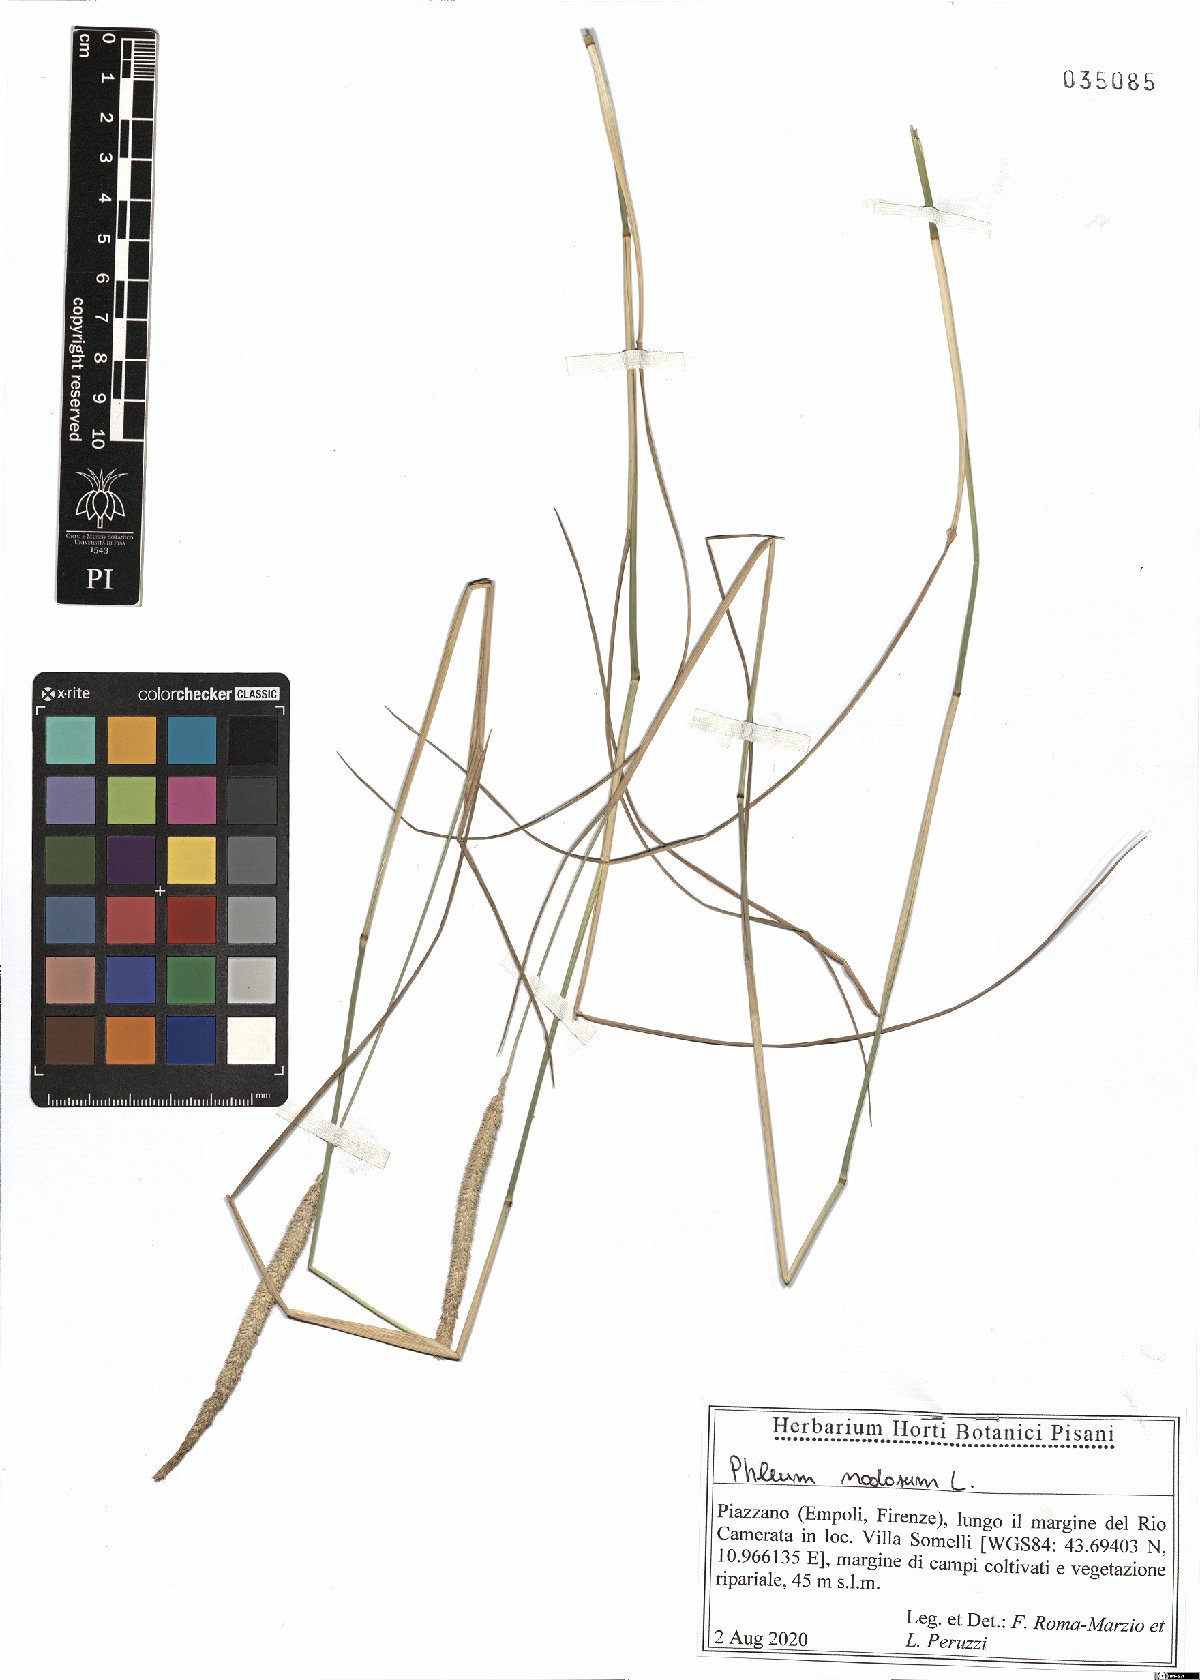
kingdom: Plantae
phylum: Tracheophyta
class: Liliopsida
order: Poales
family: Poaceae
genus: Phleum
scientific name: Phleum pratense
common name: Timothy grass
